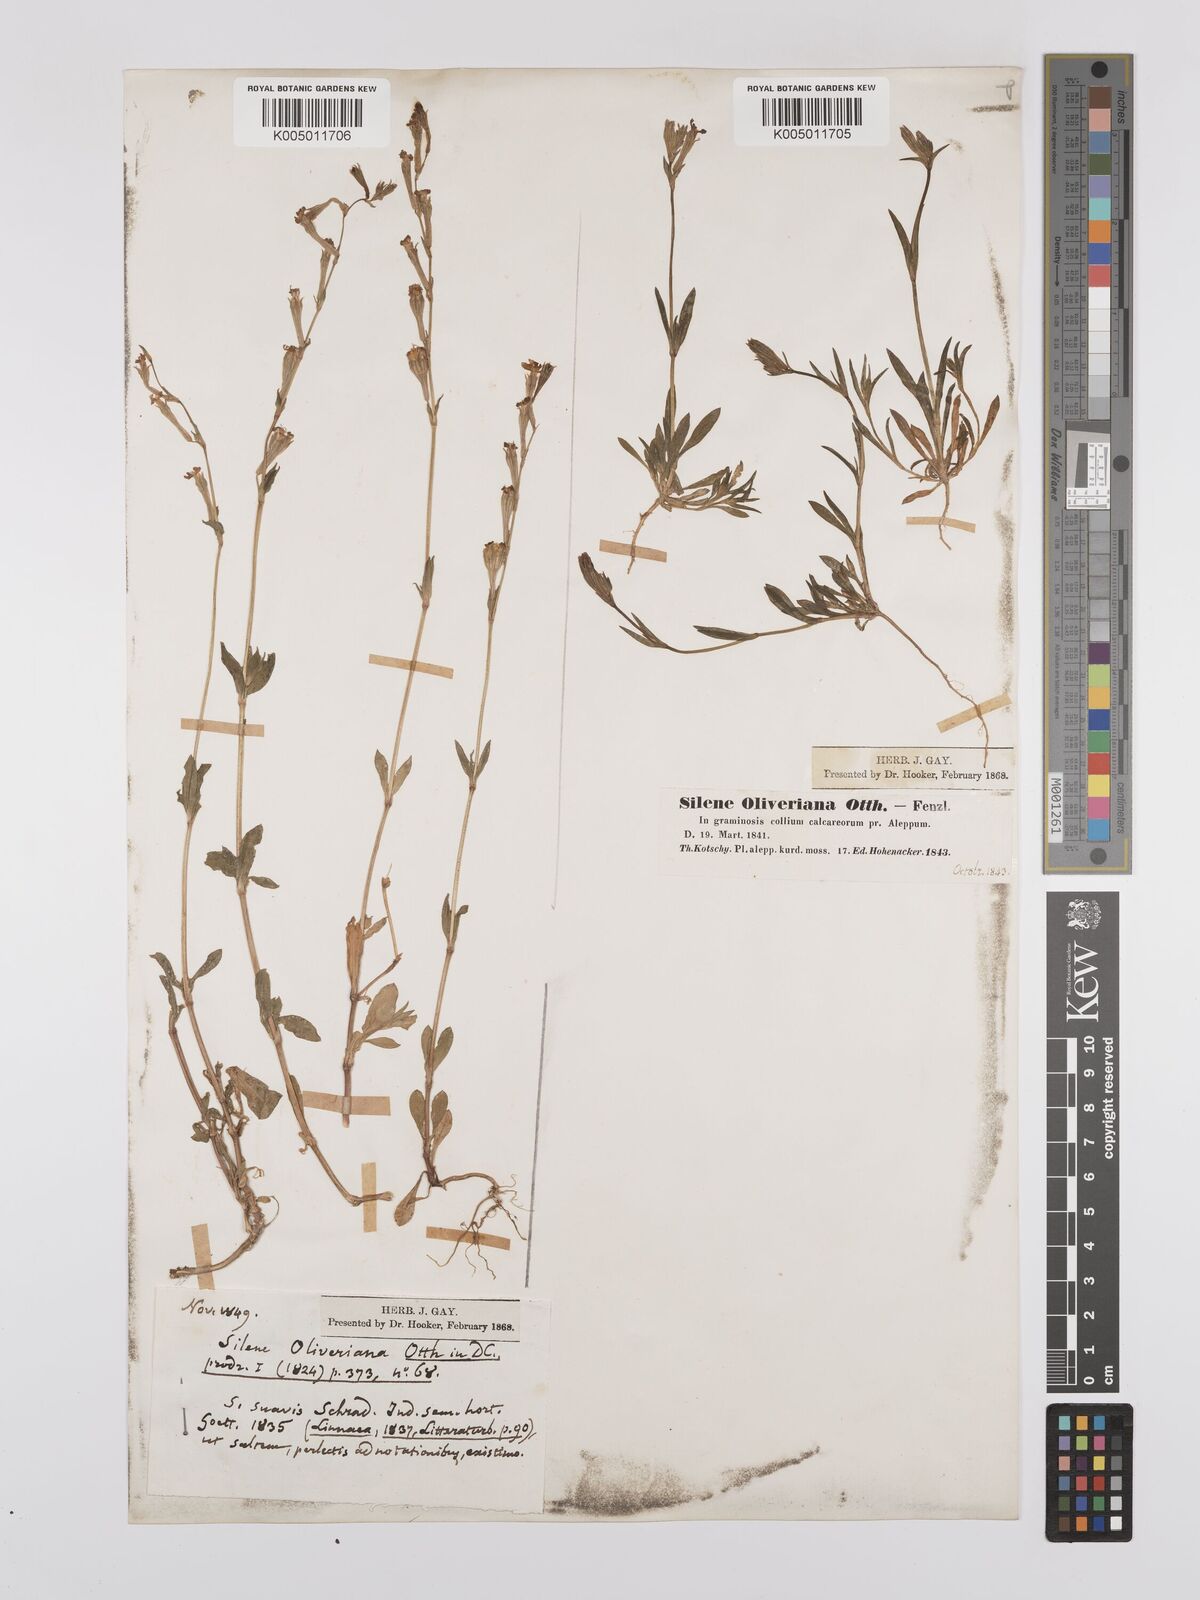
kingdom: Plantae
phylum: Tracheophyta
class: Magnoliopsida
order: Caryophyllales
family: Caryophyllaceae
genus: Silene
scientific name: Silene oliveriana
